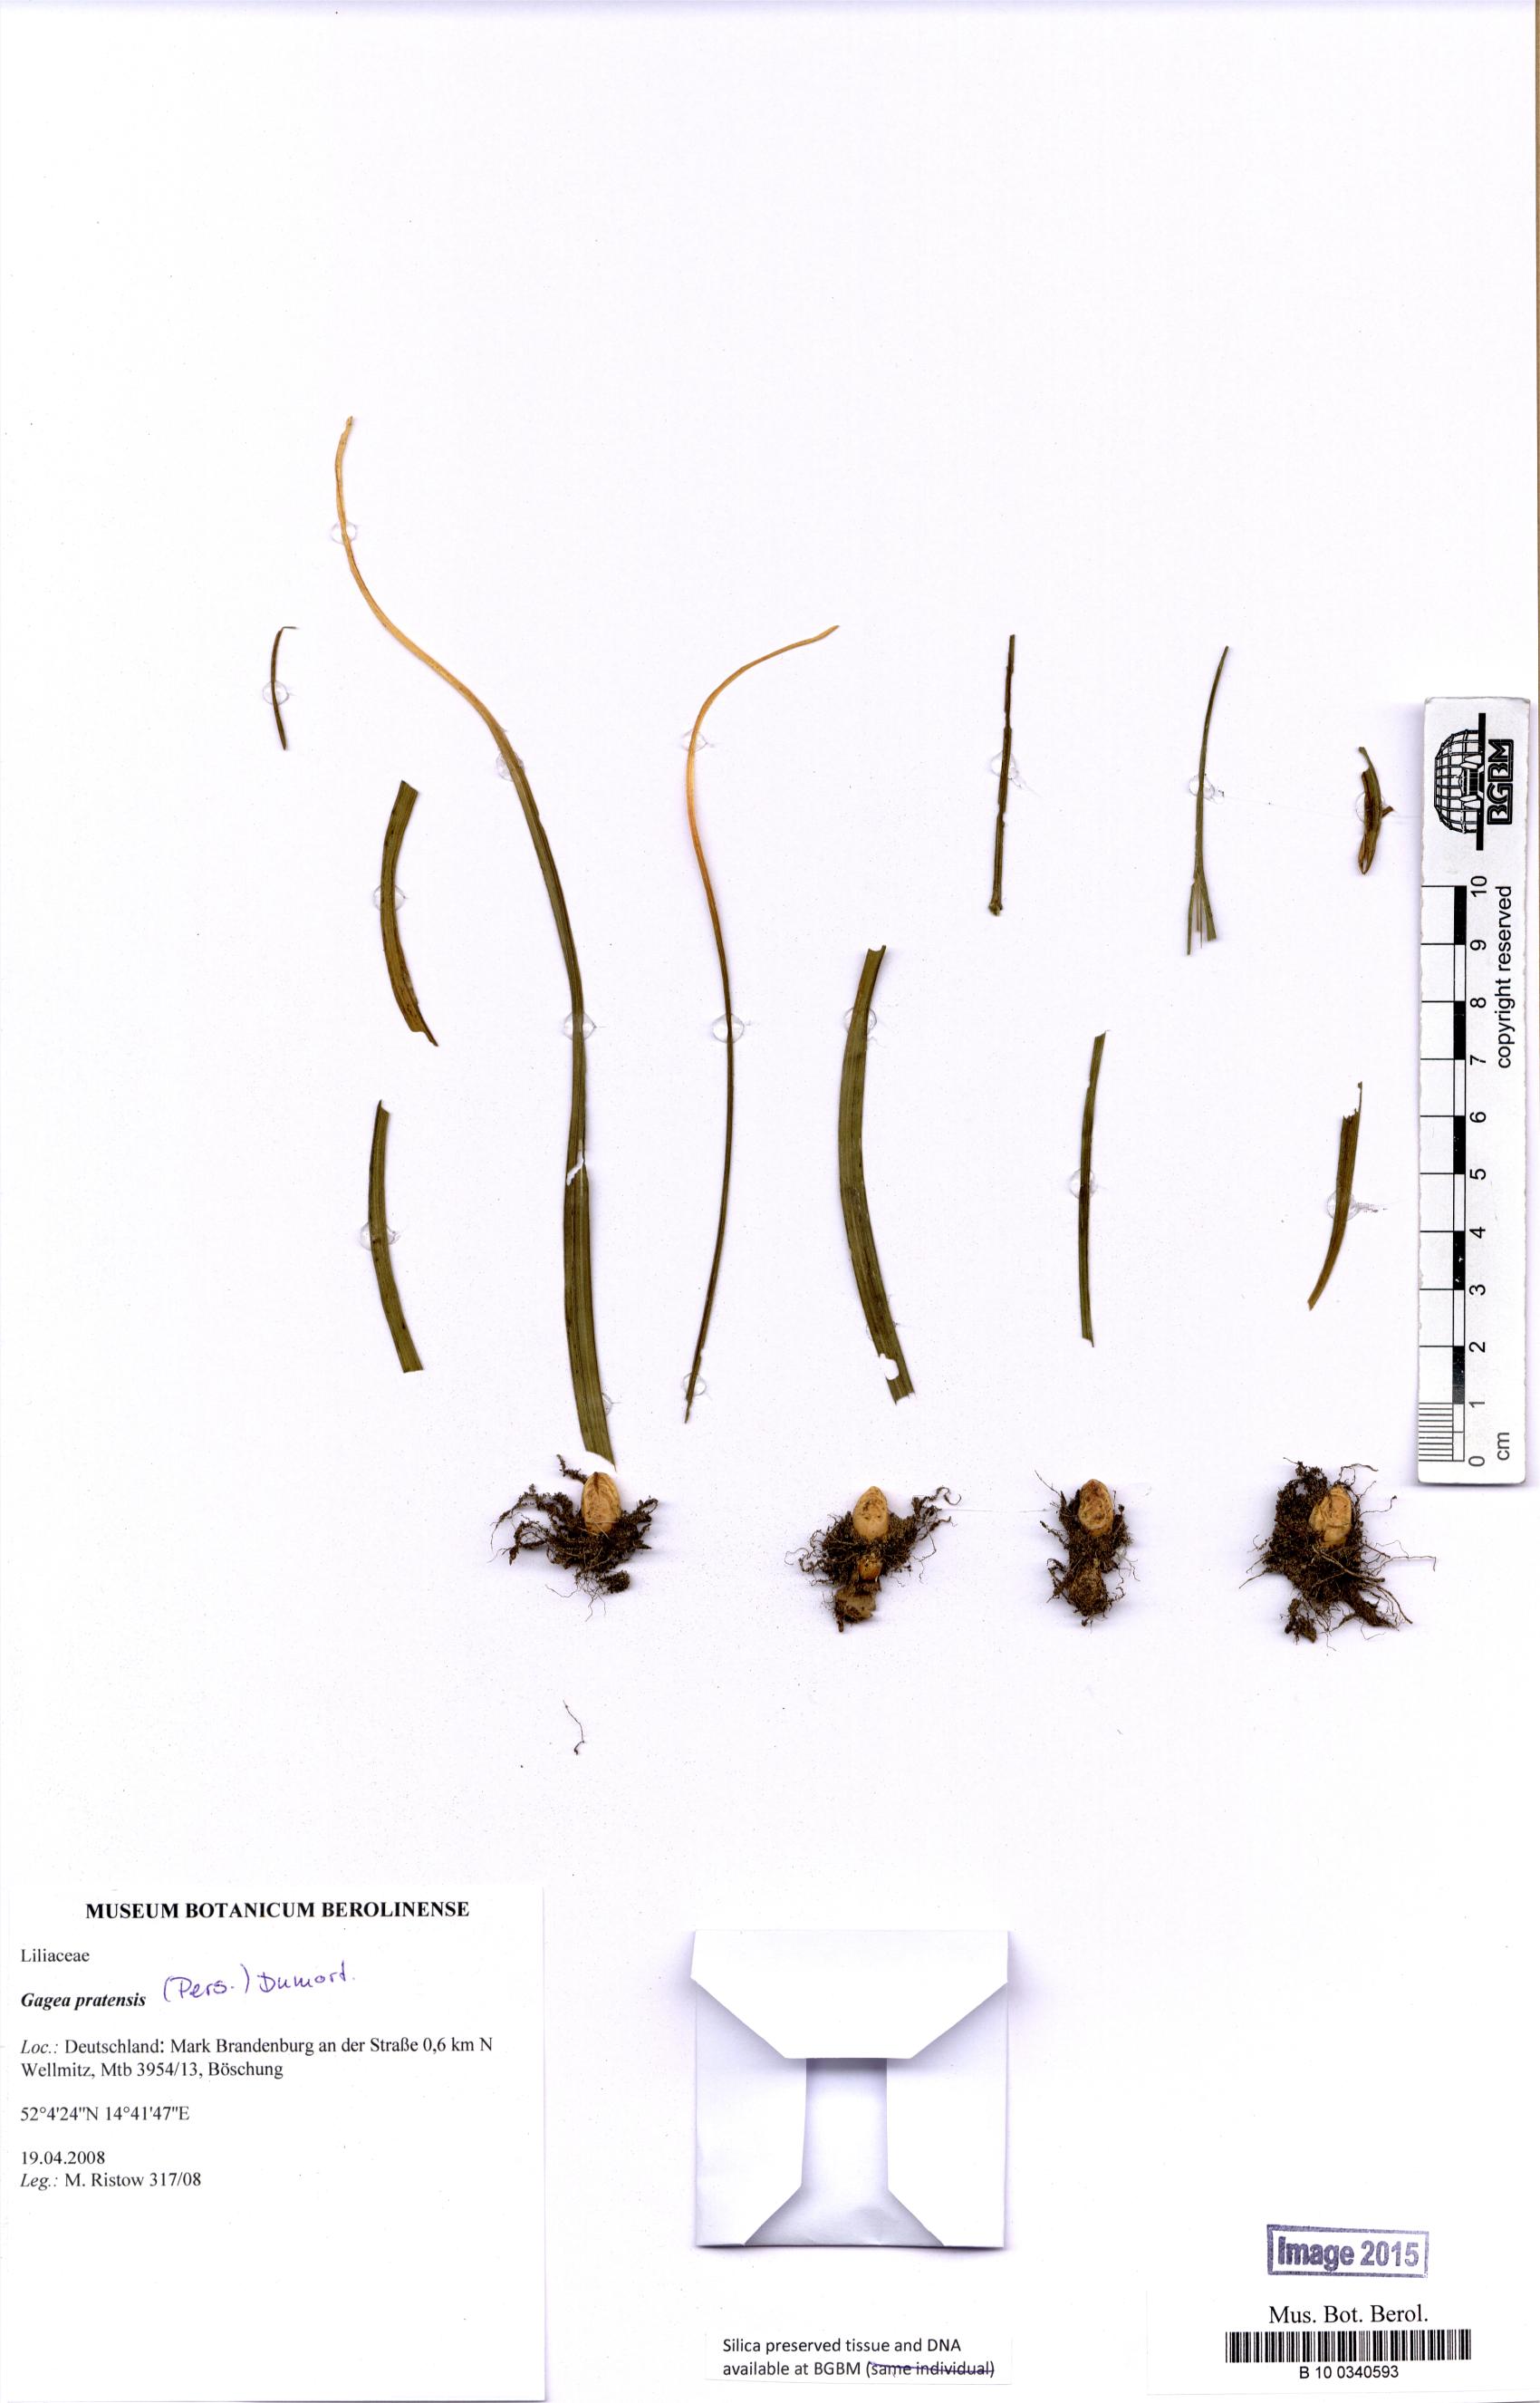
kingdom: Plantae
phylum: Tracheophyta
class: Liliopsida
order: Liliales
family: Liliaceae
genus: Gagea
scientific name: Gagea pratensis
